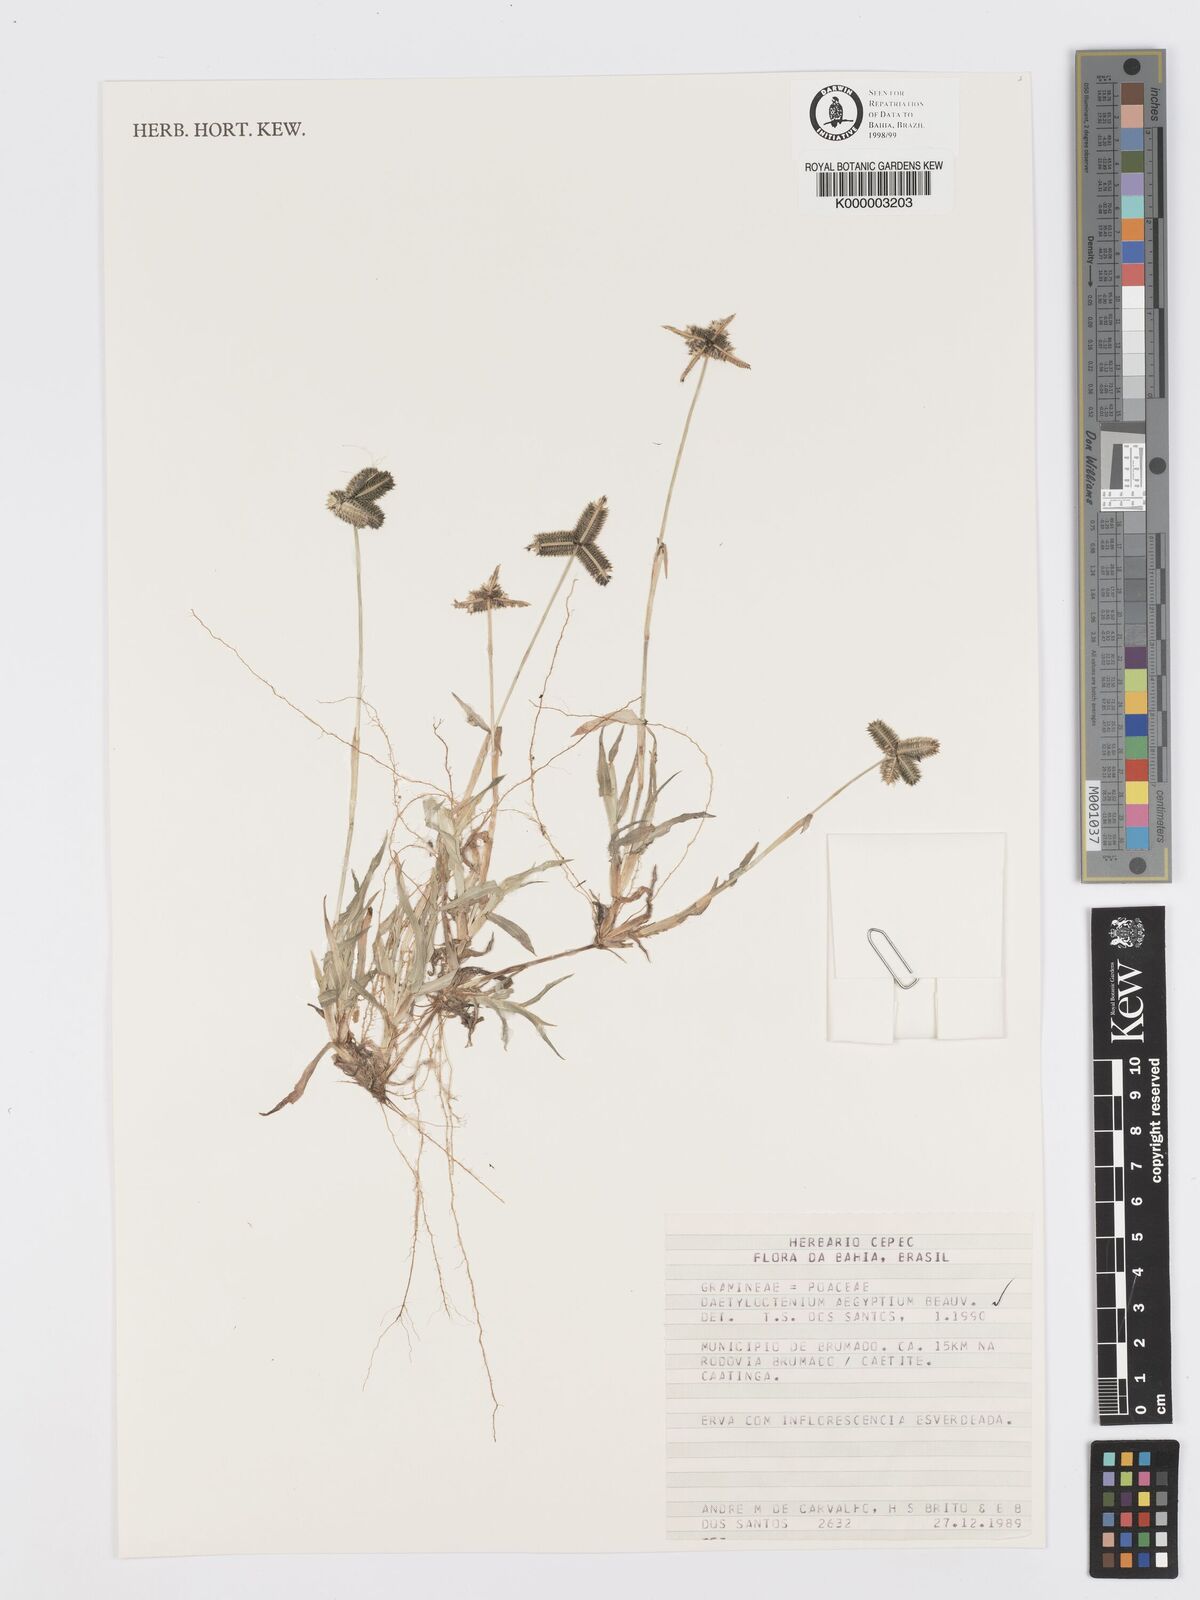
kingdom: Plantae
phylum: Tracheophyta
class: Liliopsida
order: Poales
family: Poaceae
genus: Dactyloctenium
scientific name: Dactyloctenium aegyptium
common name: Egyptian grass
